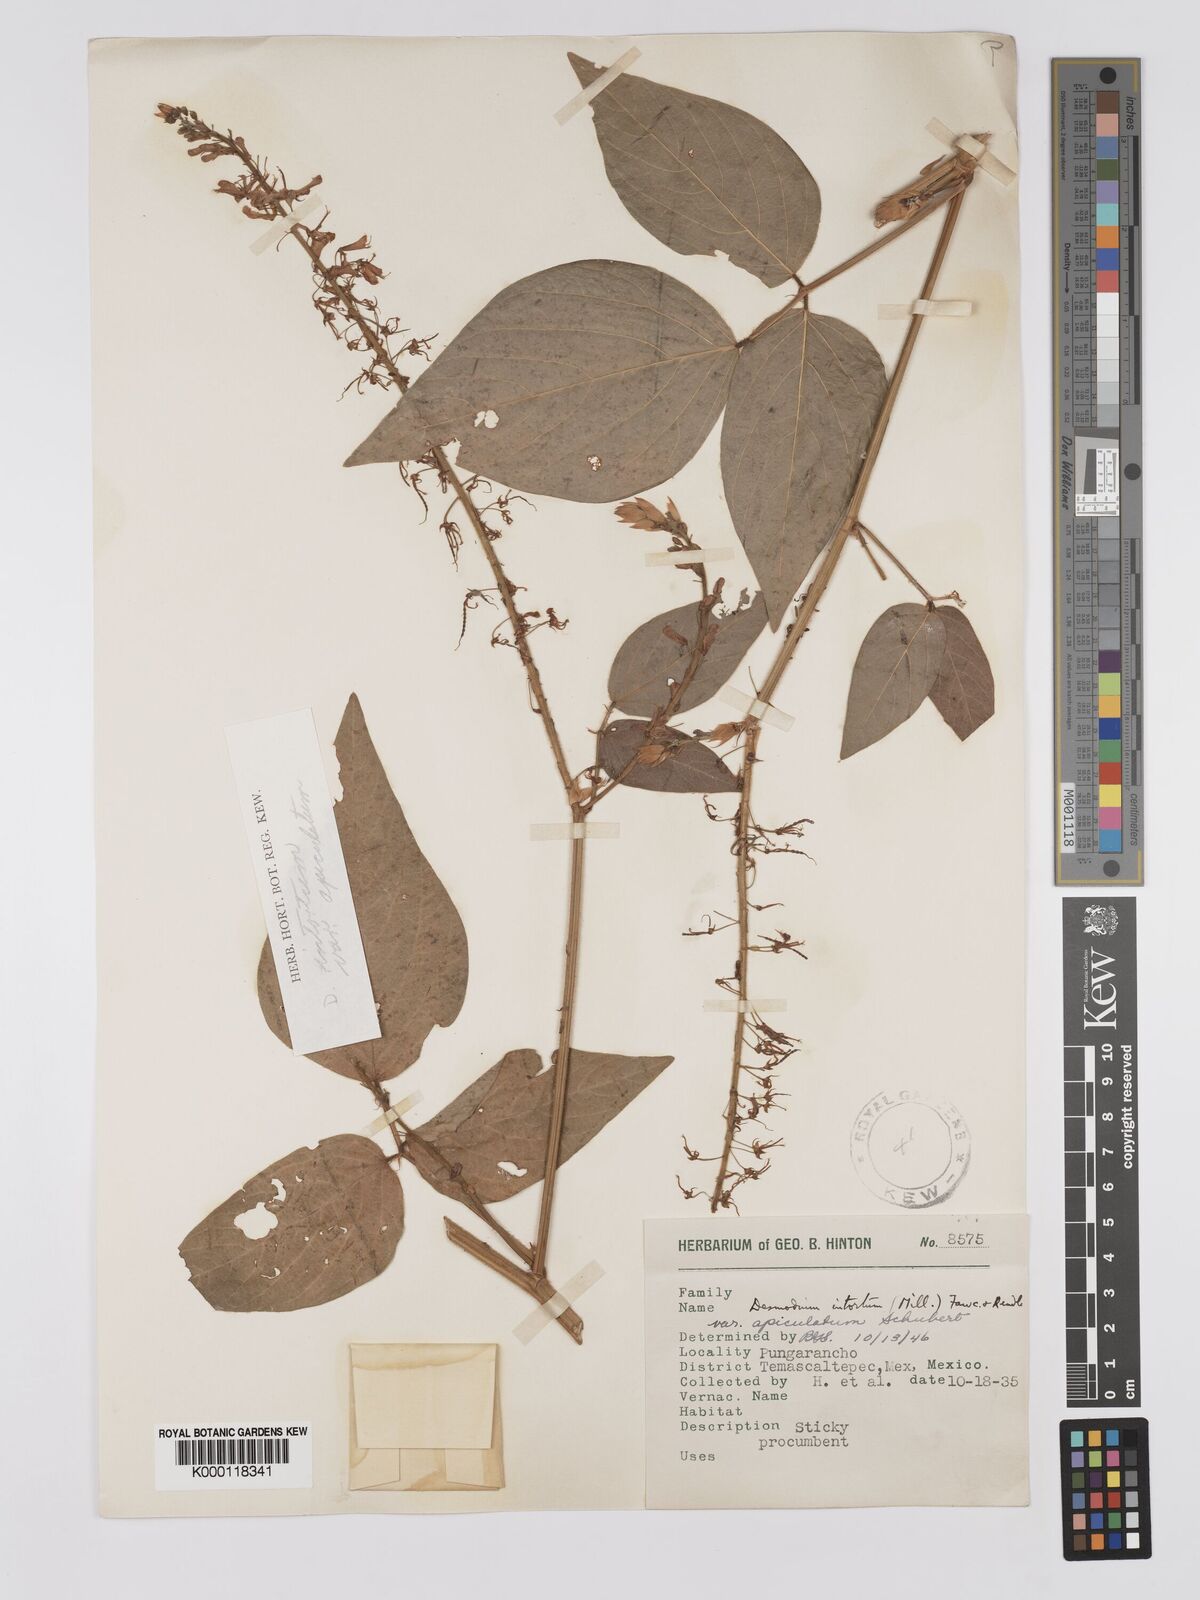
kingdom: Plantae
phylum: Tracheophyta
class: Magnoliopsida
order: Fabales
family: Fabaceae
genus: Desmodium
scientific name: Desmodium intortum
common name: Greenleaf ticktrefoil
